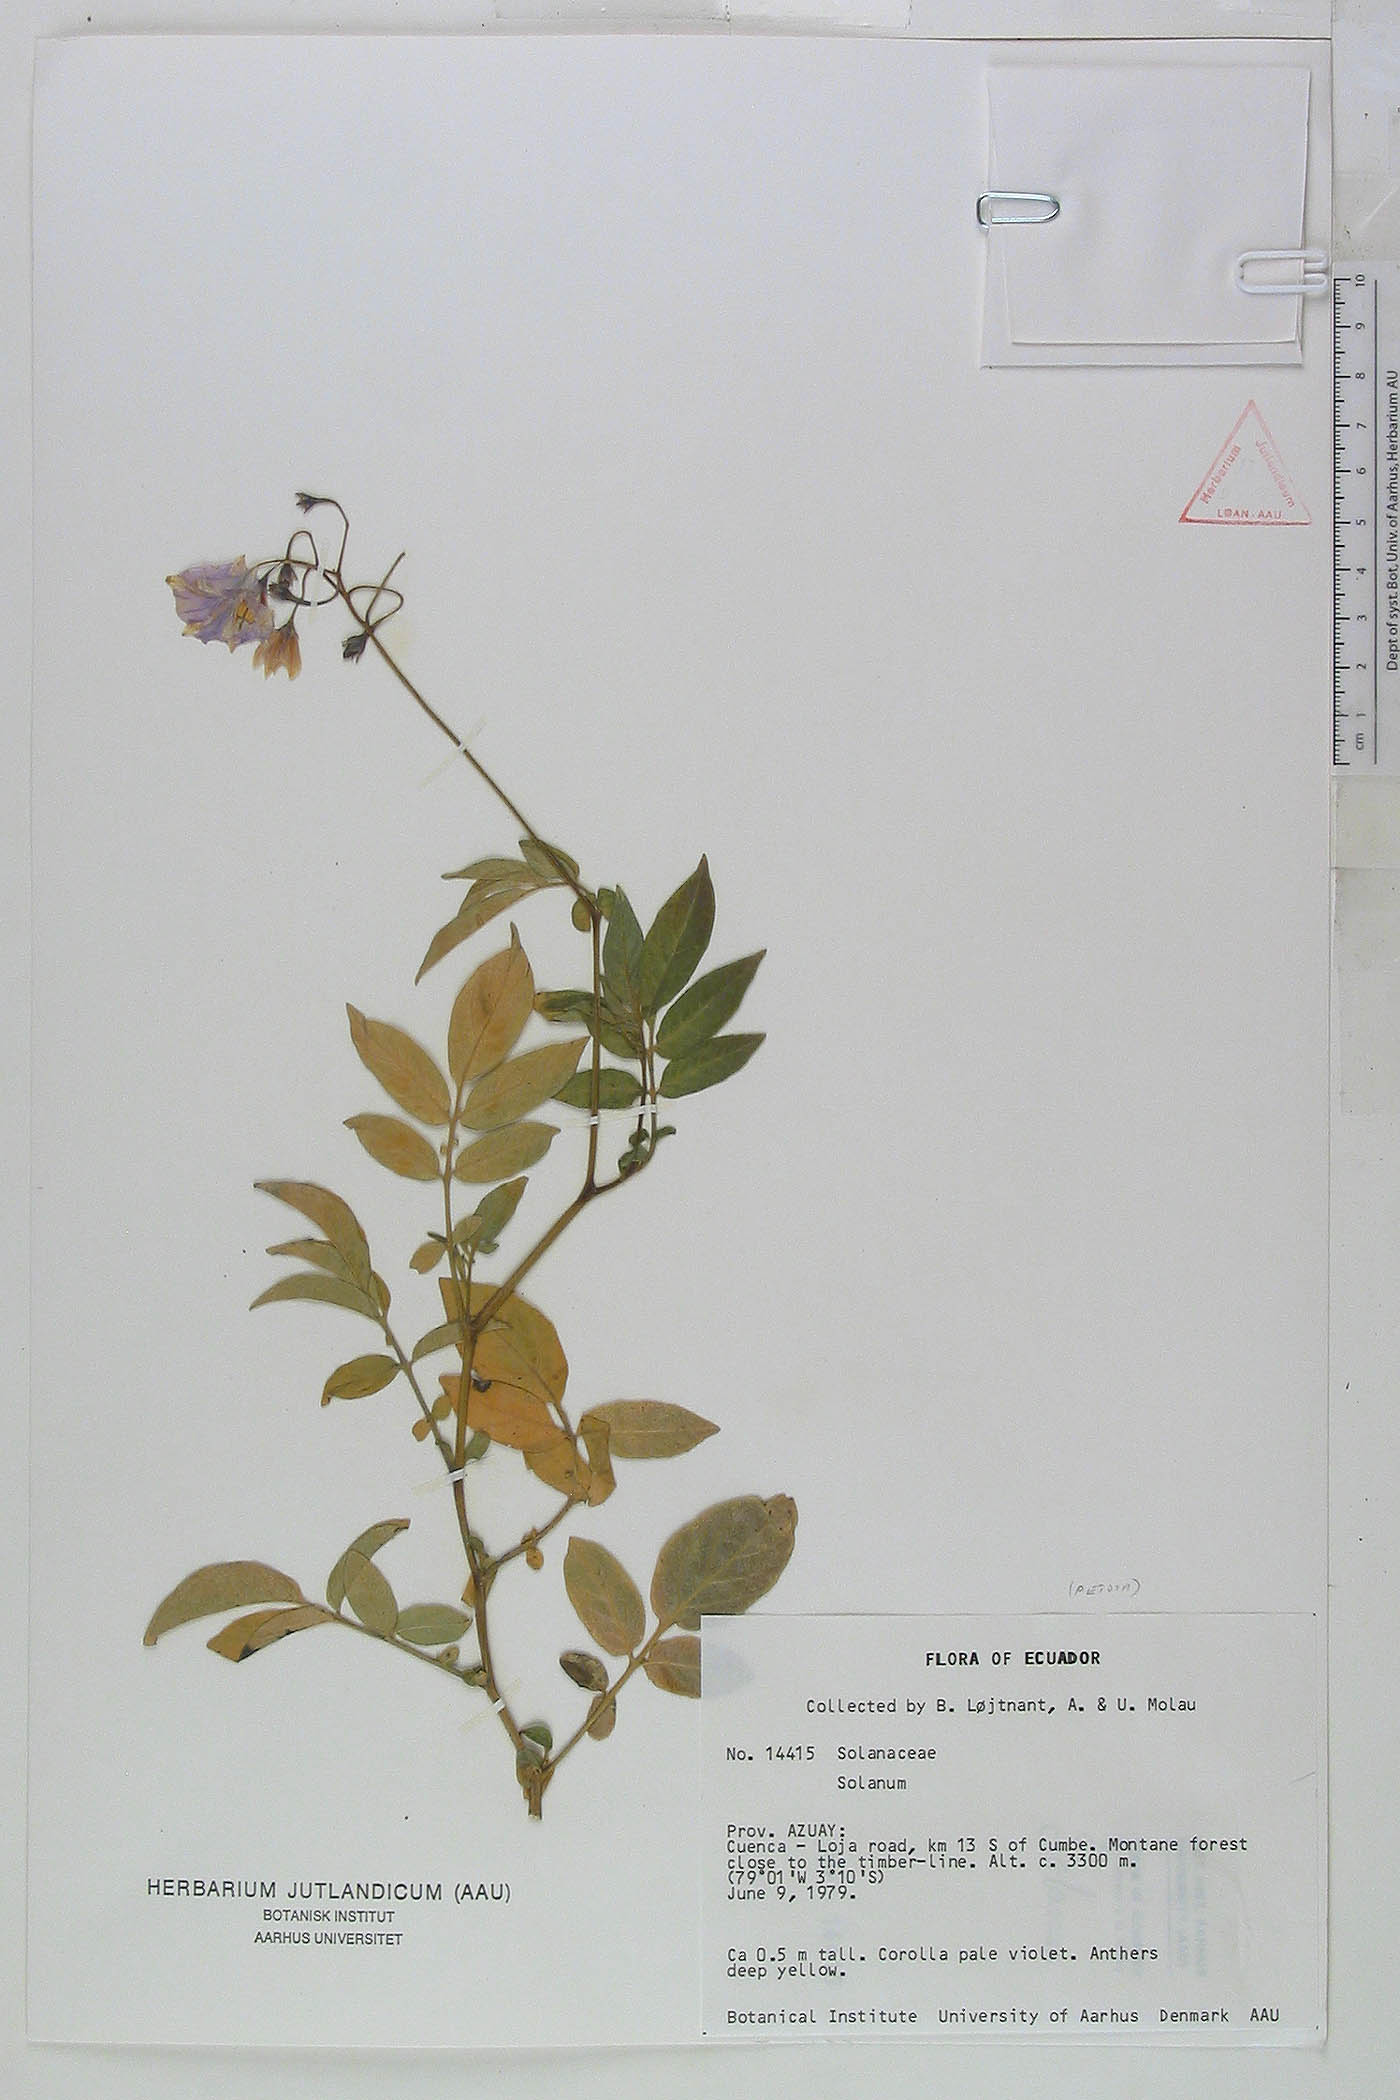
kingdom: Plantae
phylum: Tracheophyta
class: Magnoliopsida
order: Solanales
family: Solanaceae
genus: Solanum
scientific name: Solanum andreanum
